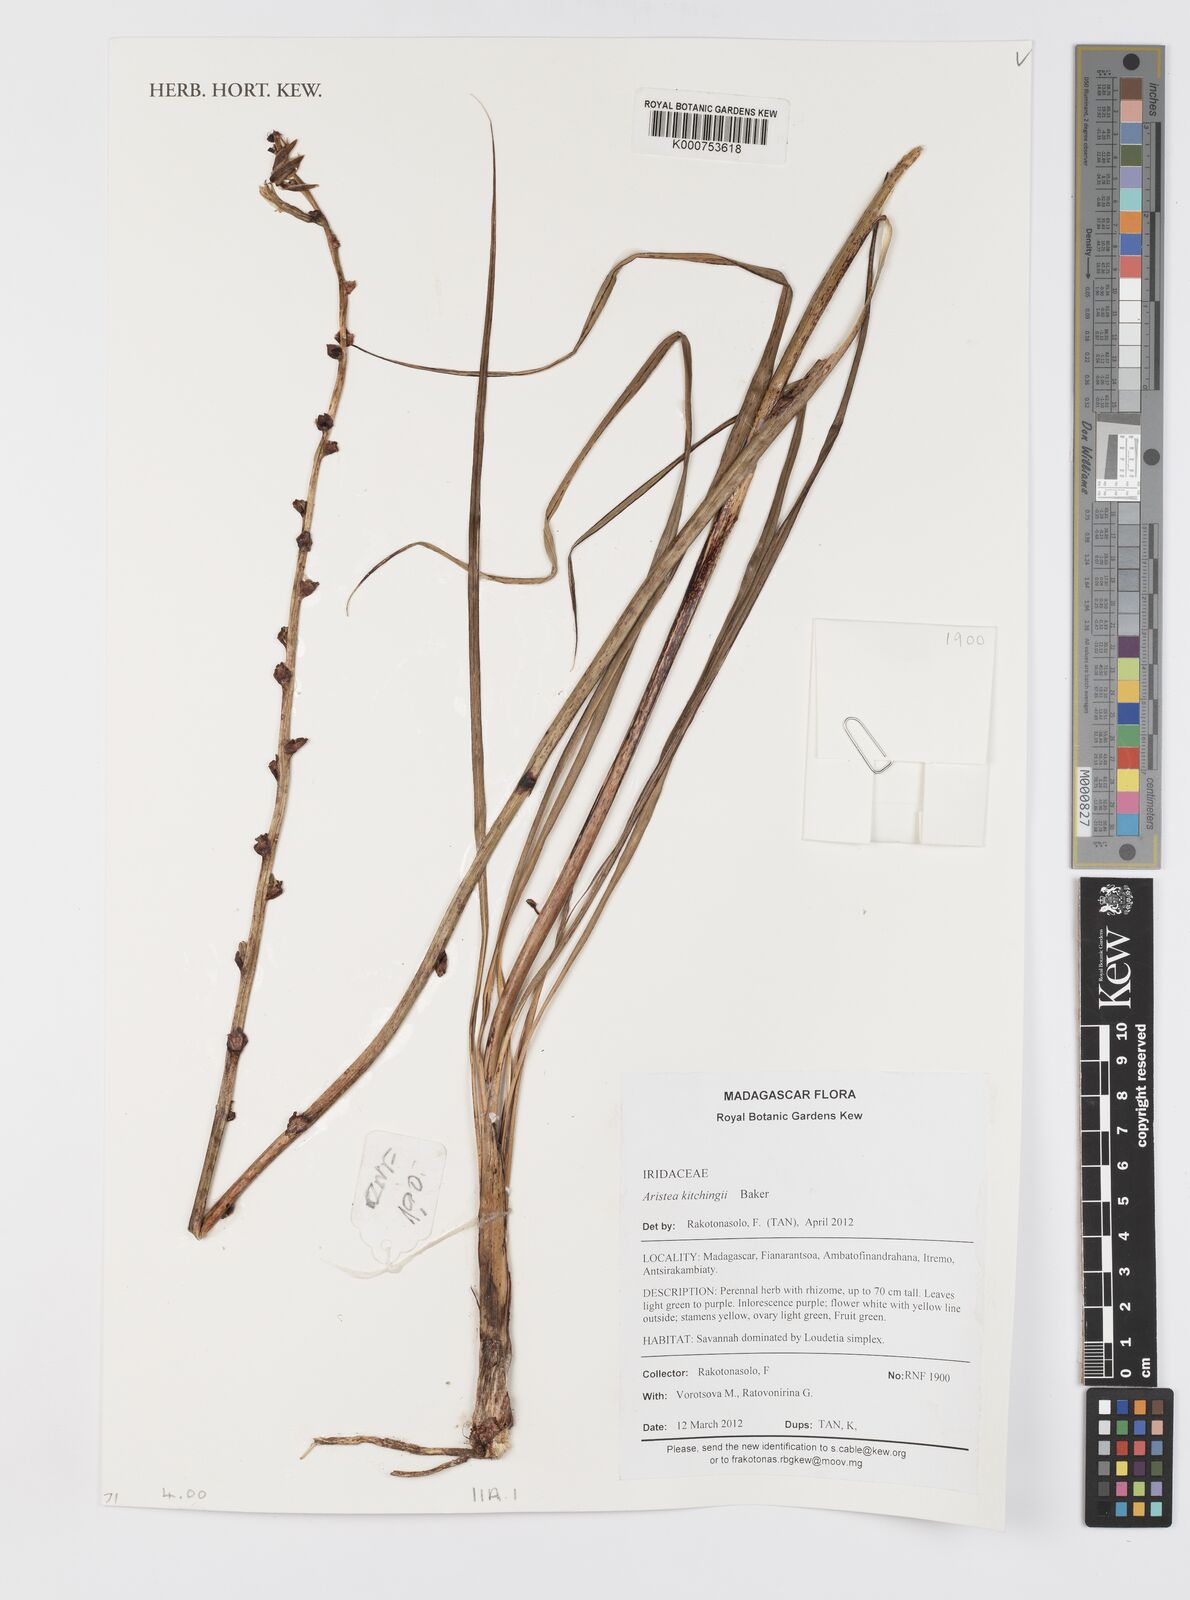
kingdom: Plantae
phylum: Tracheophyta
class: Liliopsida
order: Asparagales
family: Iridaceae
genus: Aristea
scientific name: Aristea kitchingii
